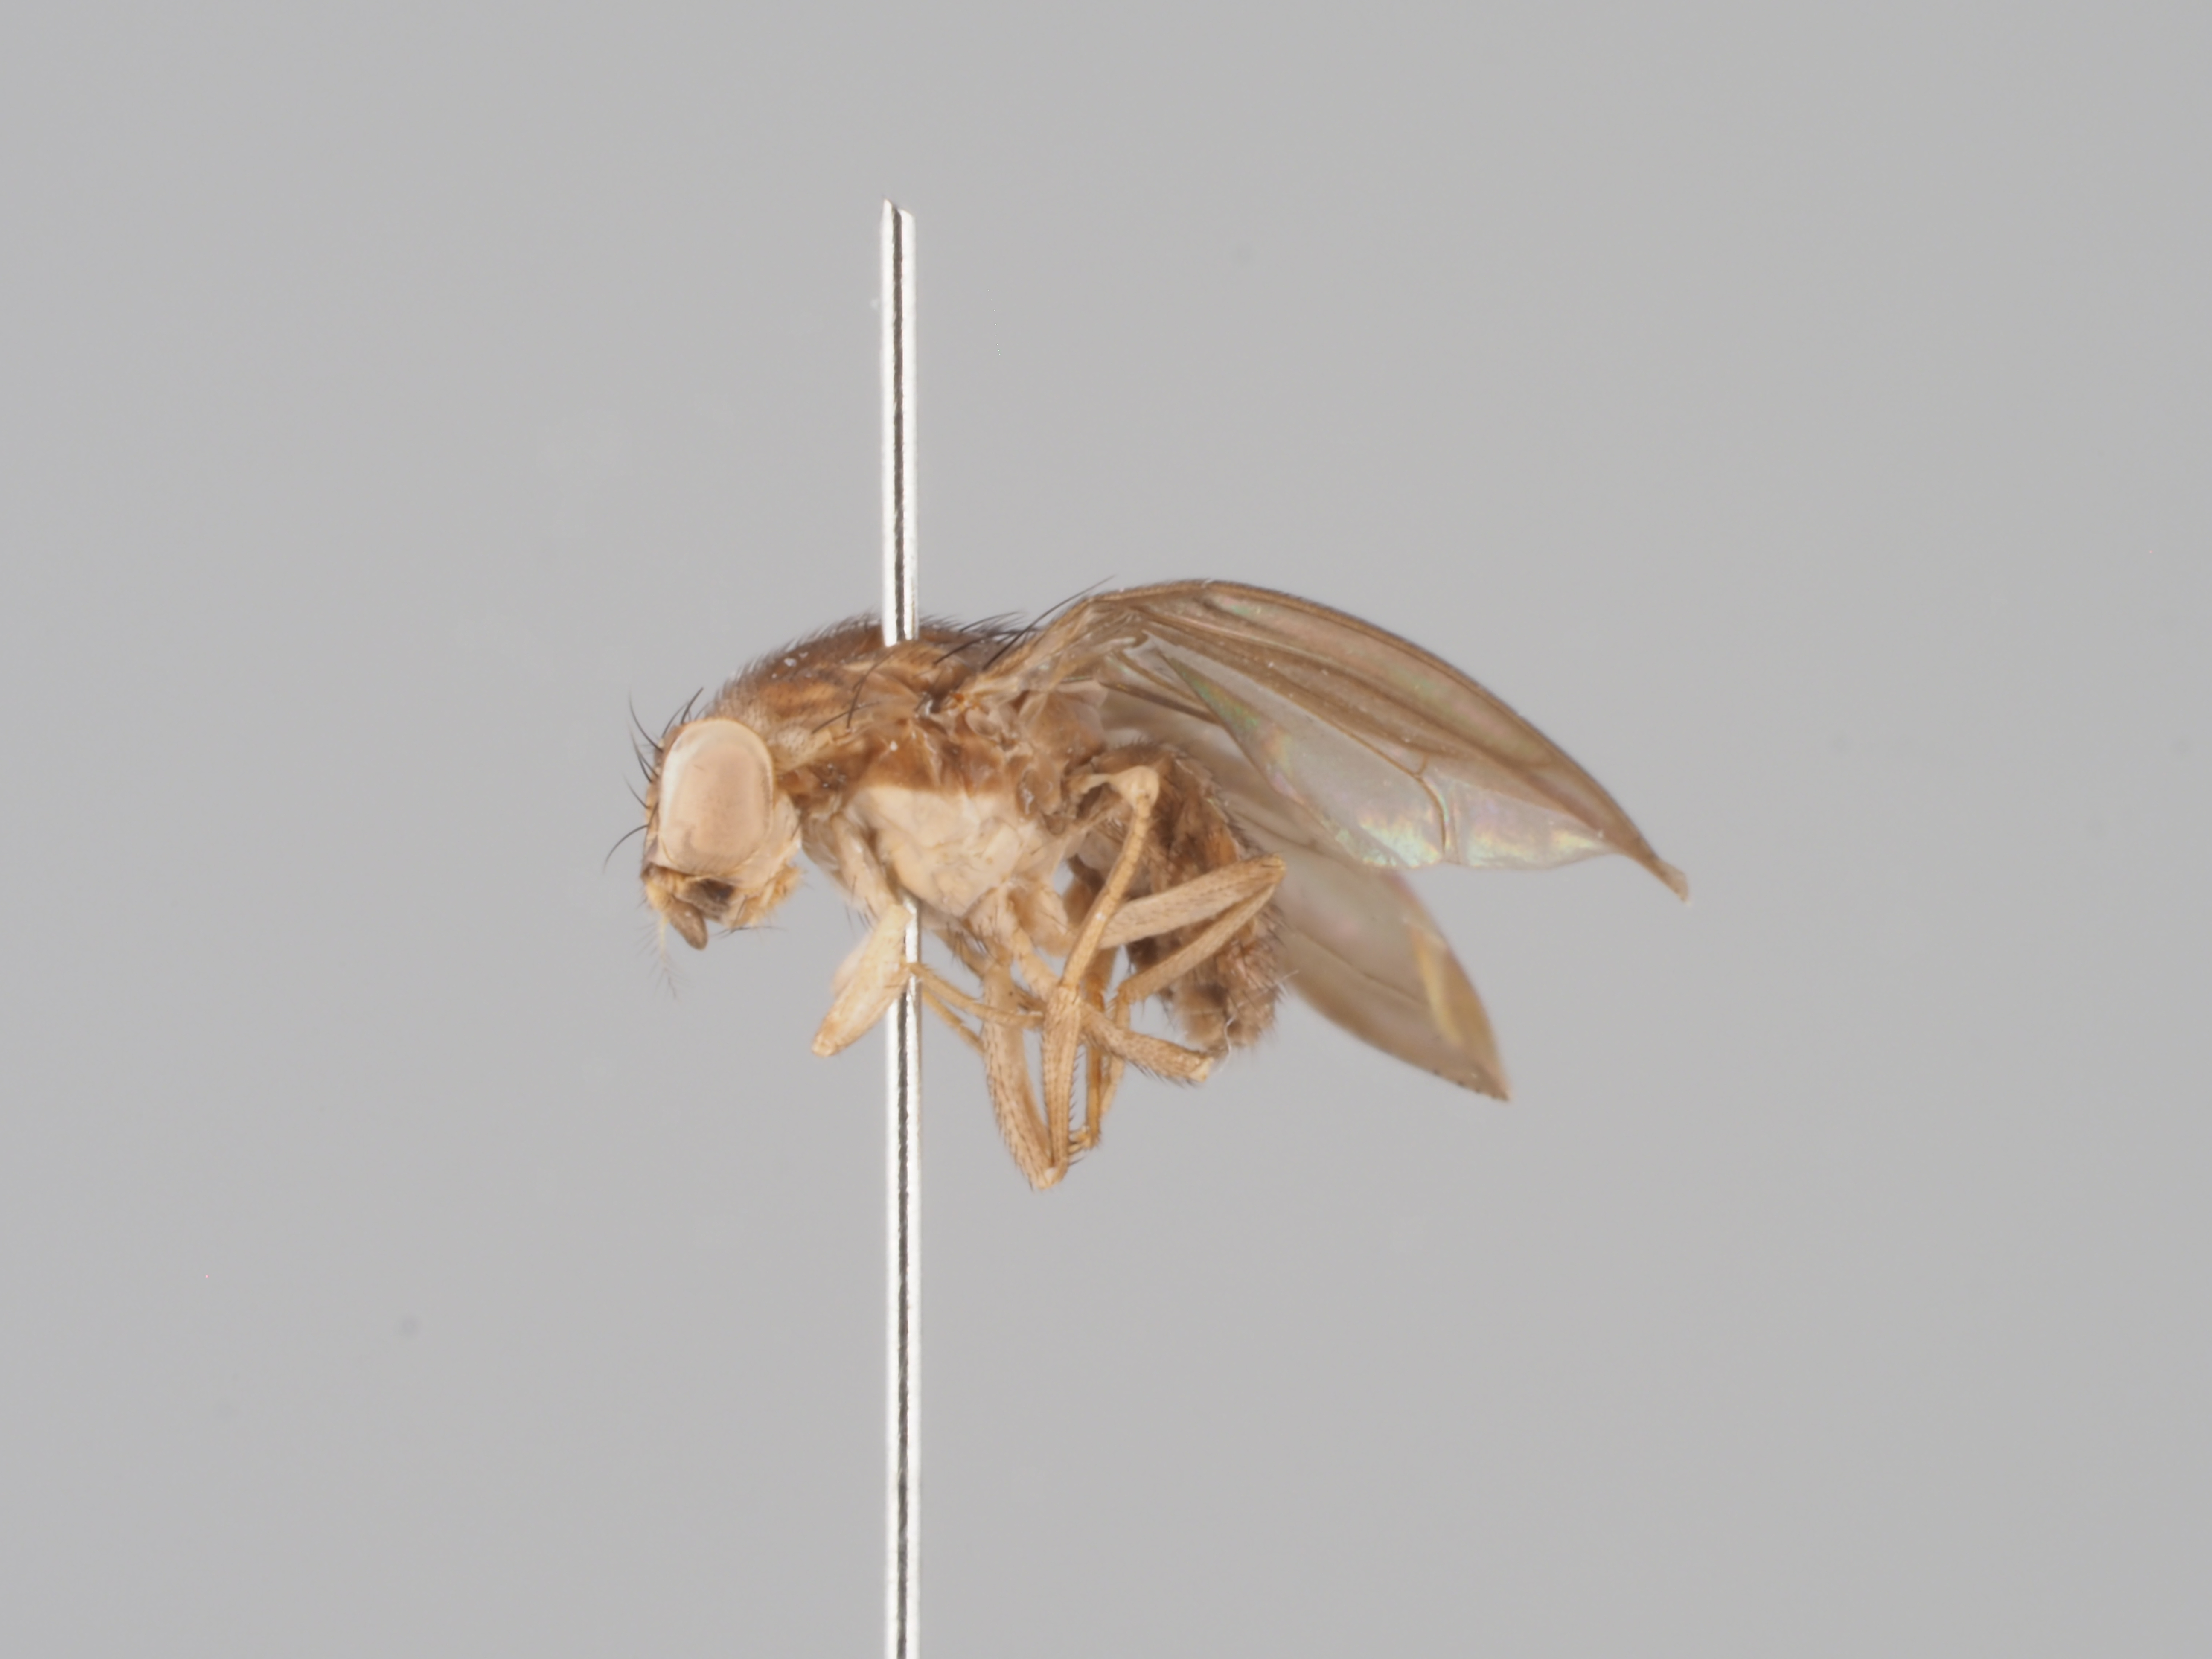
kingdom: Animalia
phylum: Arthropoda
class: Insecta
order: Diptera
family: Drosophilidae
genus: Stegana
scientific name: Stegana hypoleuca
